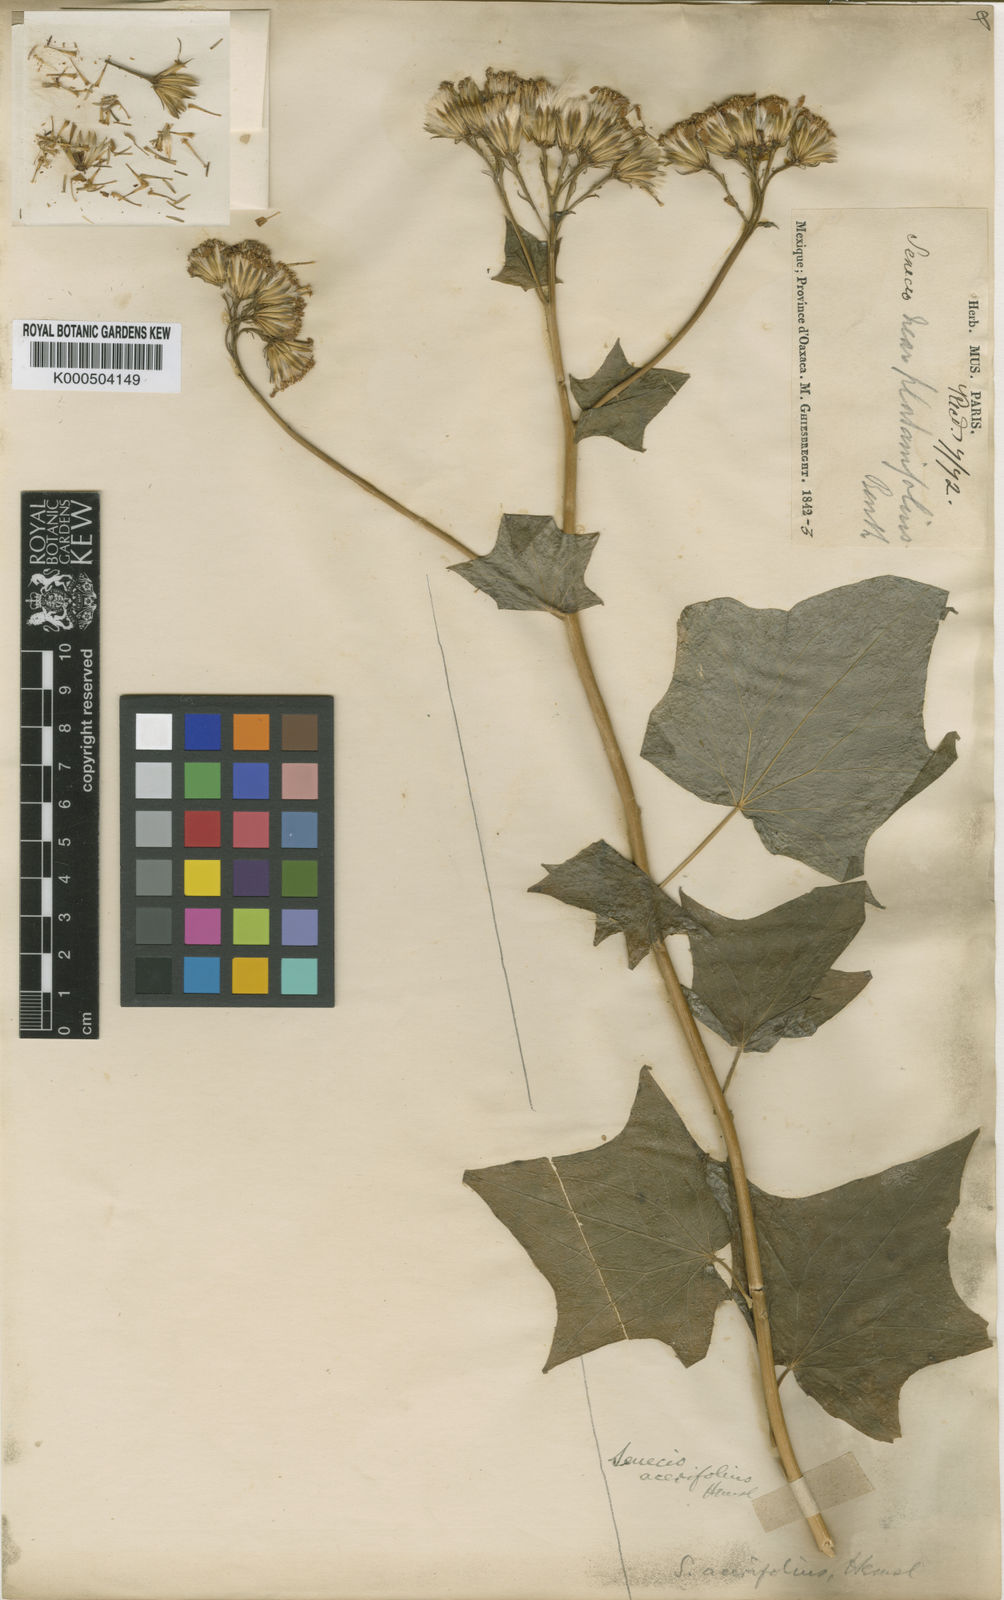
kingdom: Plantae
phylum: Tracheophyta
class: Magnoliopsida
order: Asterales
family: Asteraceae
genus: Roldana
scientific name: Roldana glinophylla
